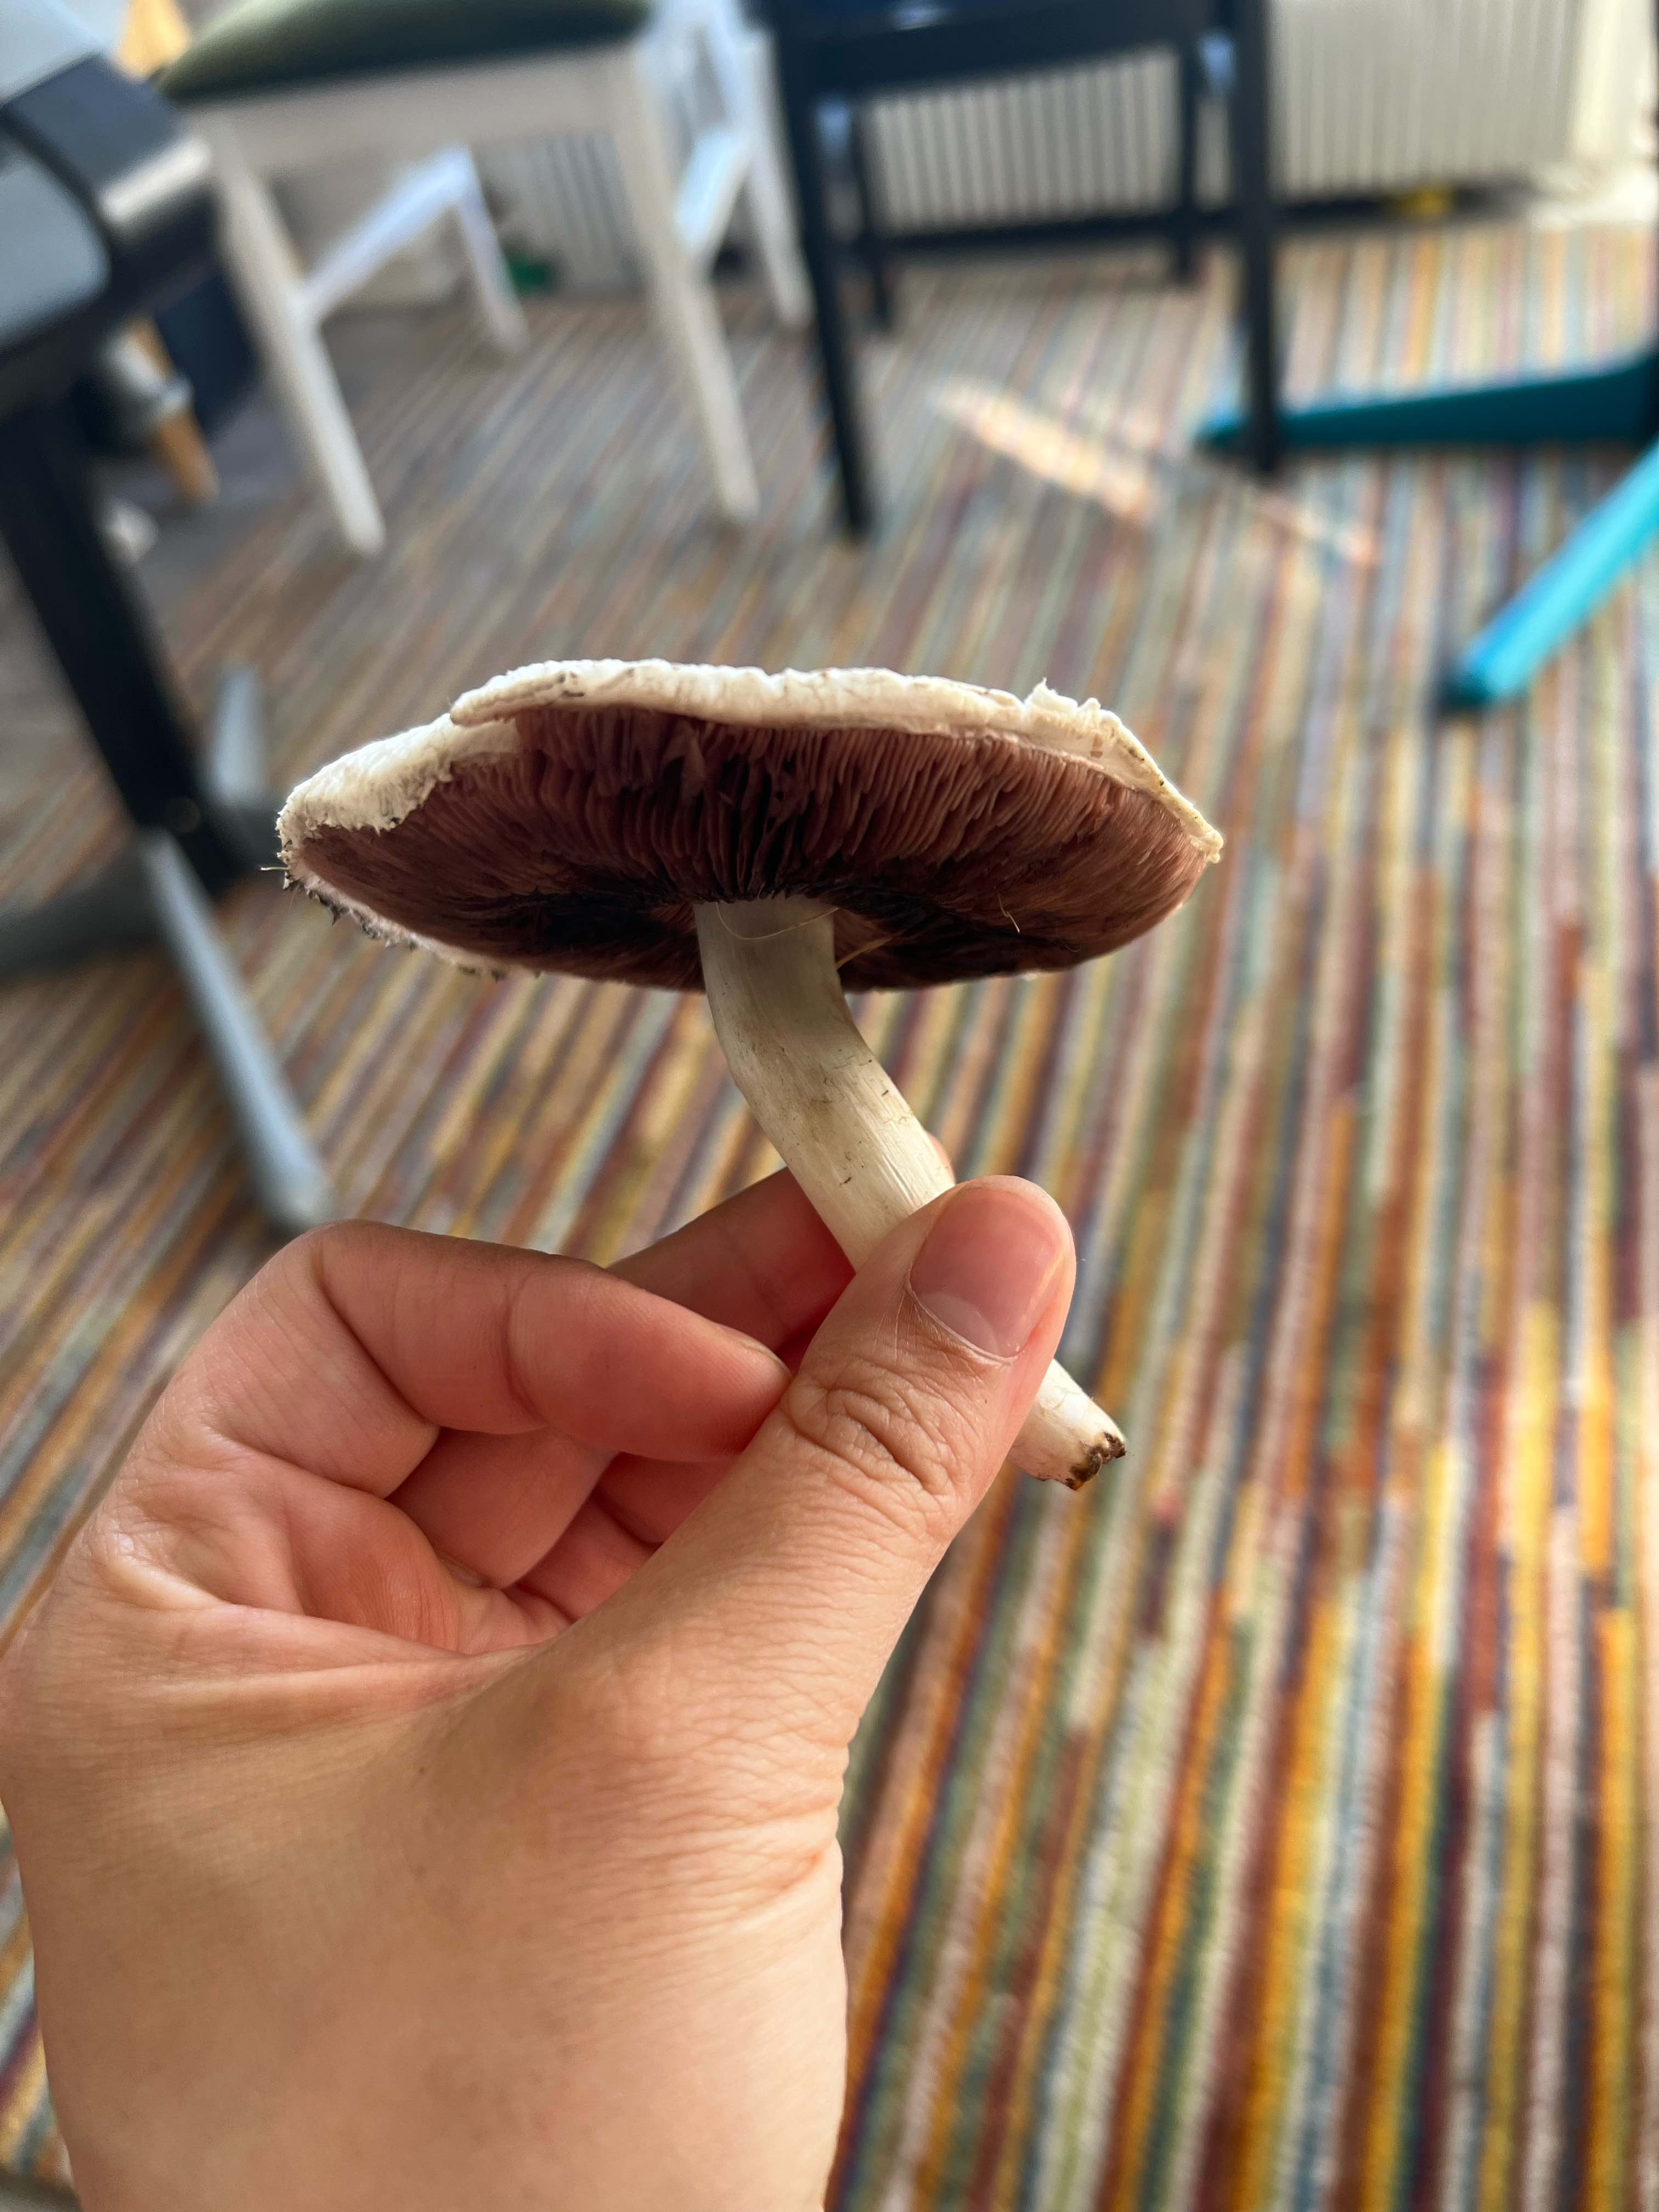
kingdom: Fungi
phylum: Basidiomycota
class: Agaricomycetes
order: Agaricales
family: Agaricaceae
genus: Agaricus
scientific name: Agaricus
